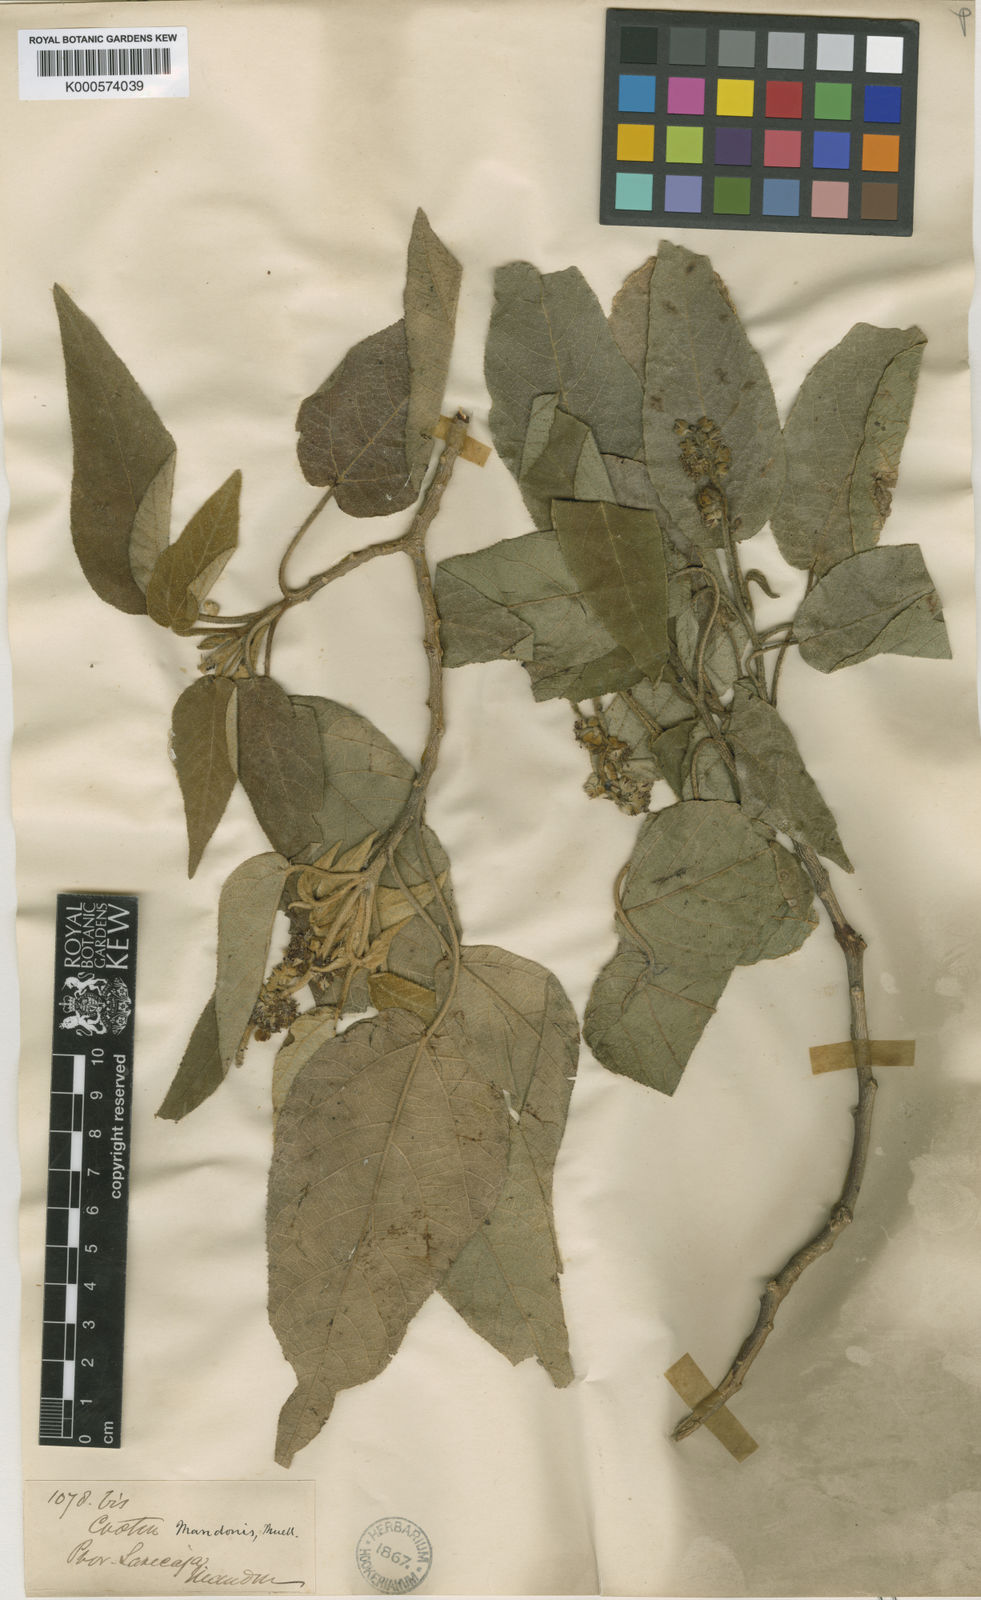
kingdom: Plantae
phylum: Tracheophyta
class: Magnoliopsida
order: Malpighiales
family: Euphorbiaceae
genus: Croton
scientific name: Croton
